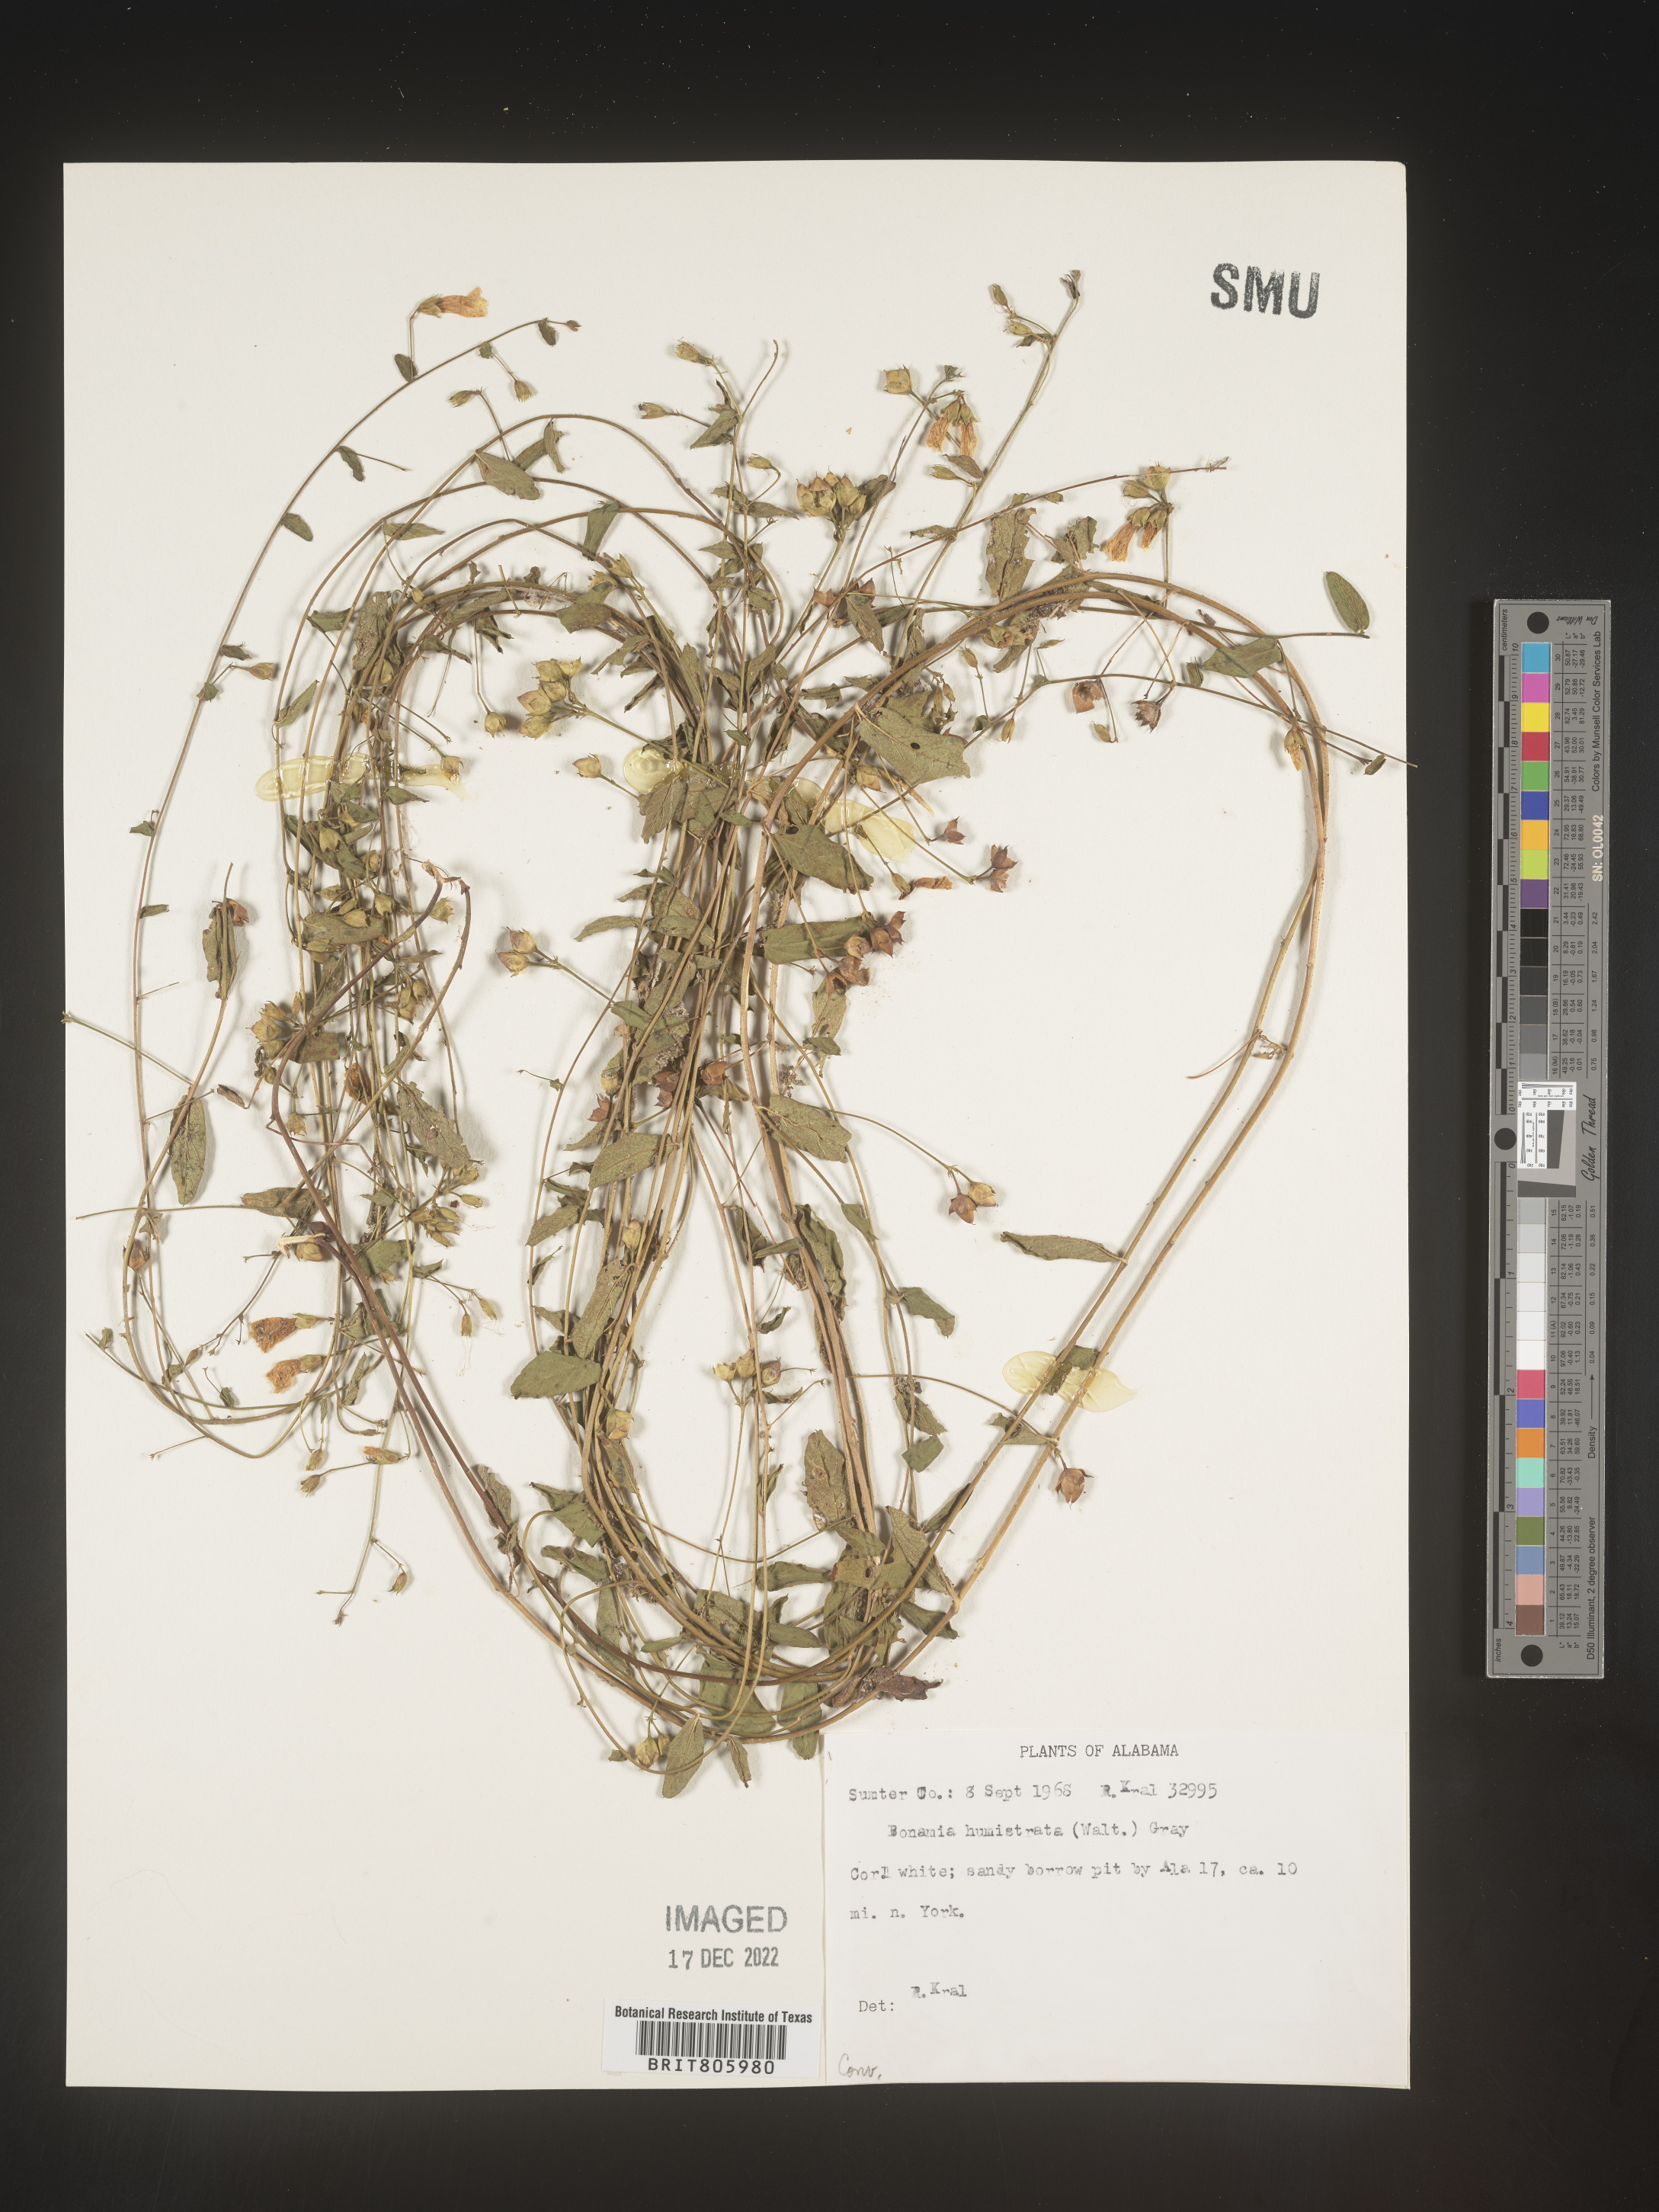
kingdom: Plantae
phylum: Tracheophyta
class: Magnoliopsida
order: Solanales
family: Convolvulaceae
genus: Stylisma
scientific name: Stylisma humistrata
